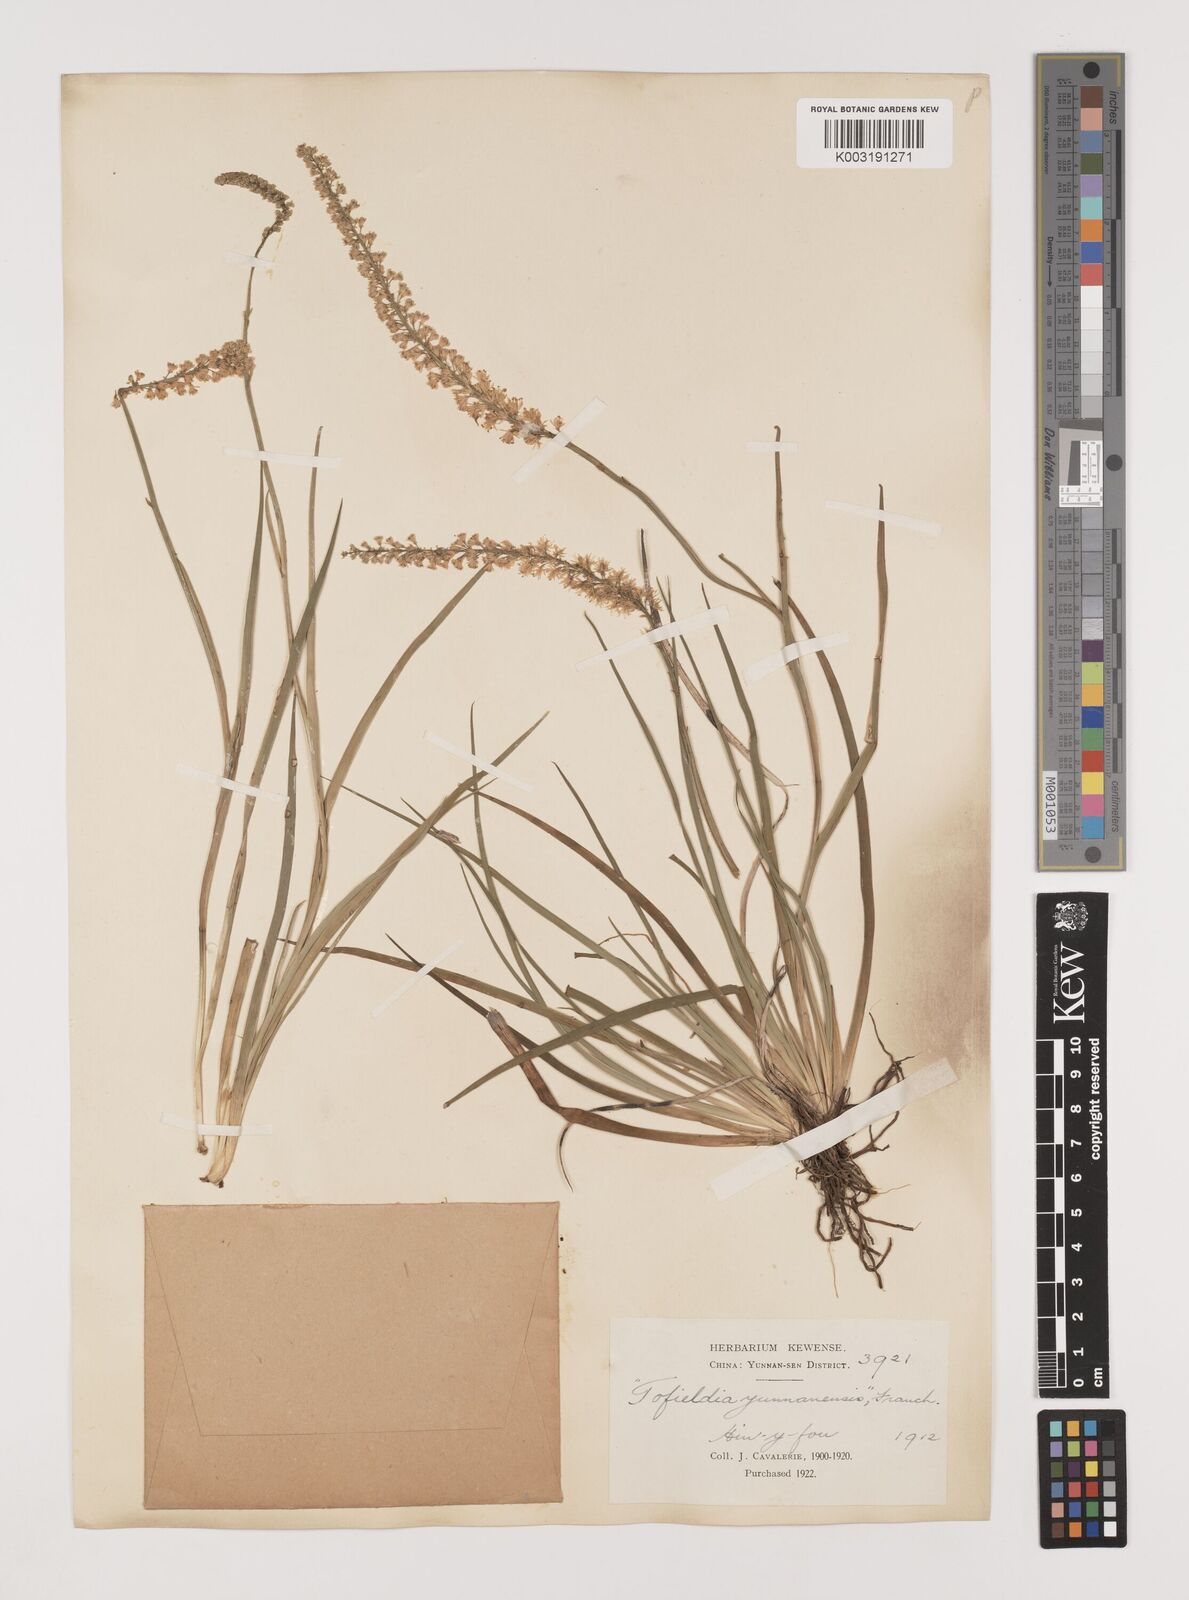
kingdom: Plantae
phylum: Tracheophyta
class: Liliopsida
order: Alismatales
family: Tofieldiaceae
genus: Tofieldia
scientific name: Tofieldia divergens
